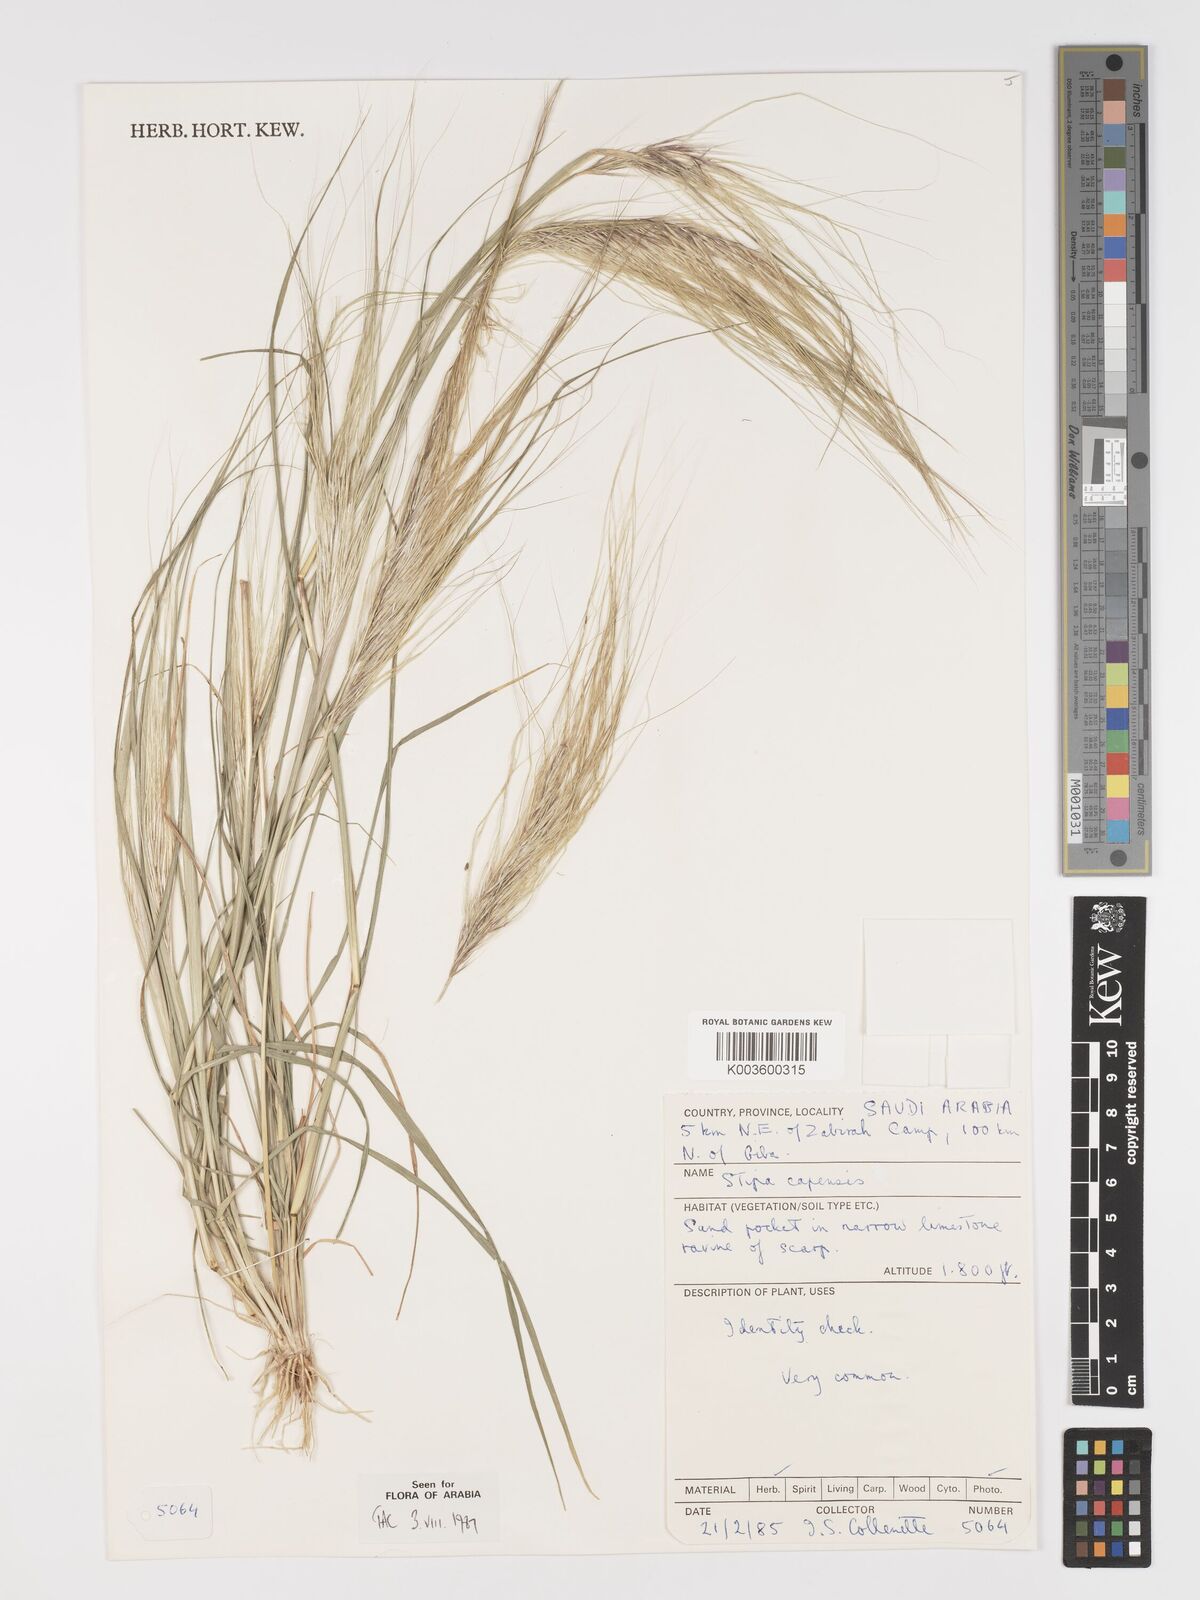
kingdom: Plantae
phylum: Tracheophyta
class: Liliopsida
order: Poales
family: Poaceae
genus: Stipellula
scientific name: Stipellula capensis
